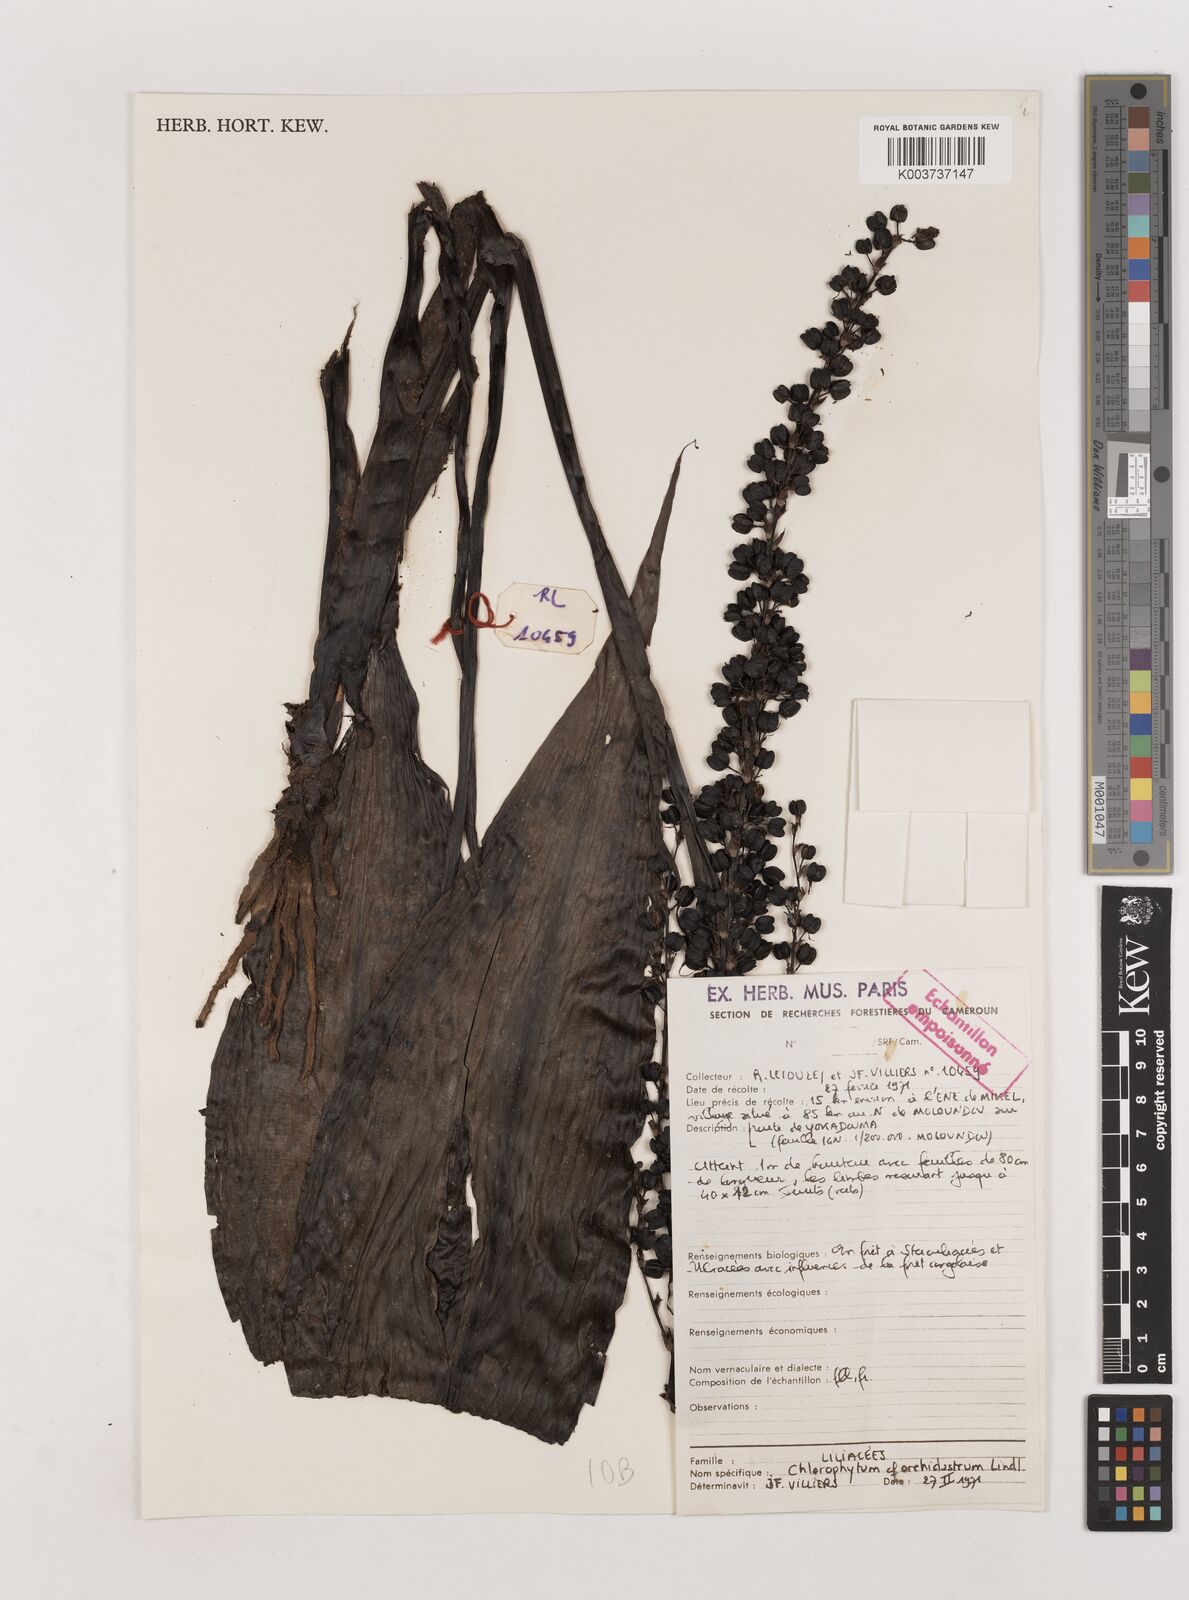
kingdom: Plantae
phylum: Tracheophyta
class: Liliopsida
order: Asparagales
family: Asparagaceae
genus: Chlorophytum
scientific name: Chlorophytum orchidastrum
